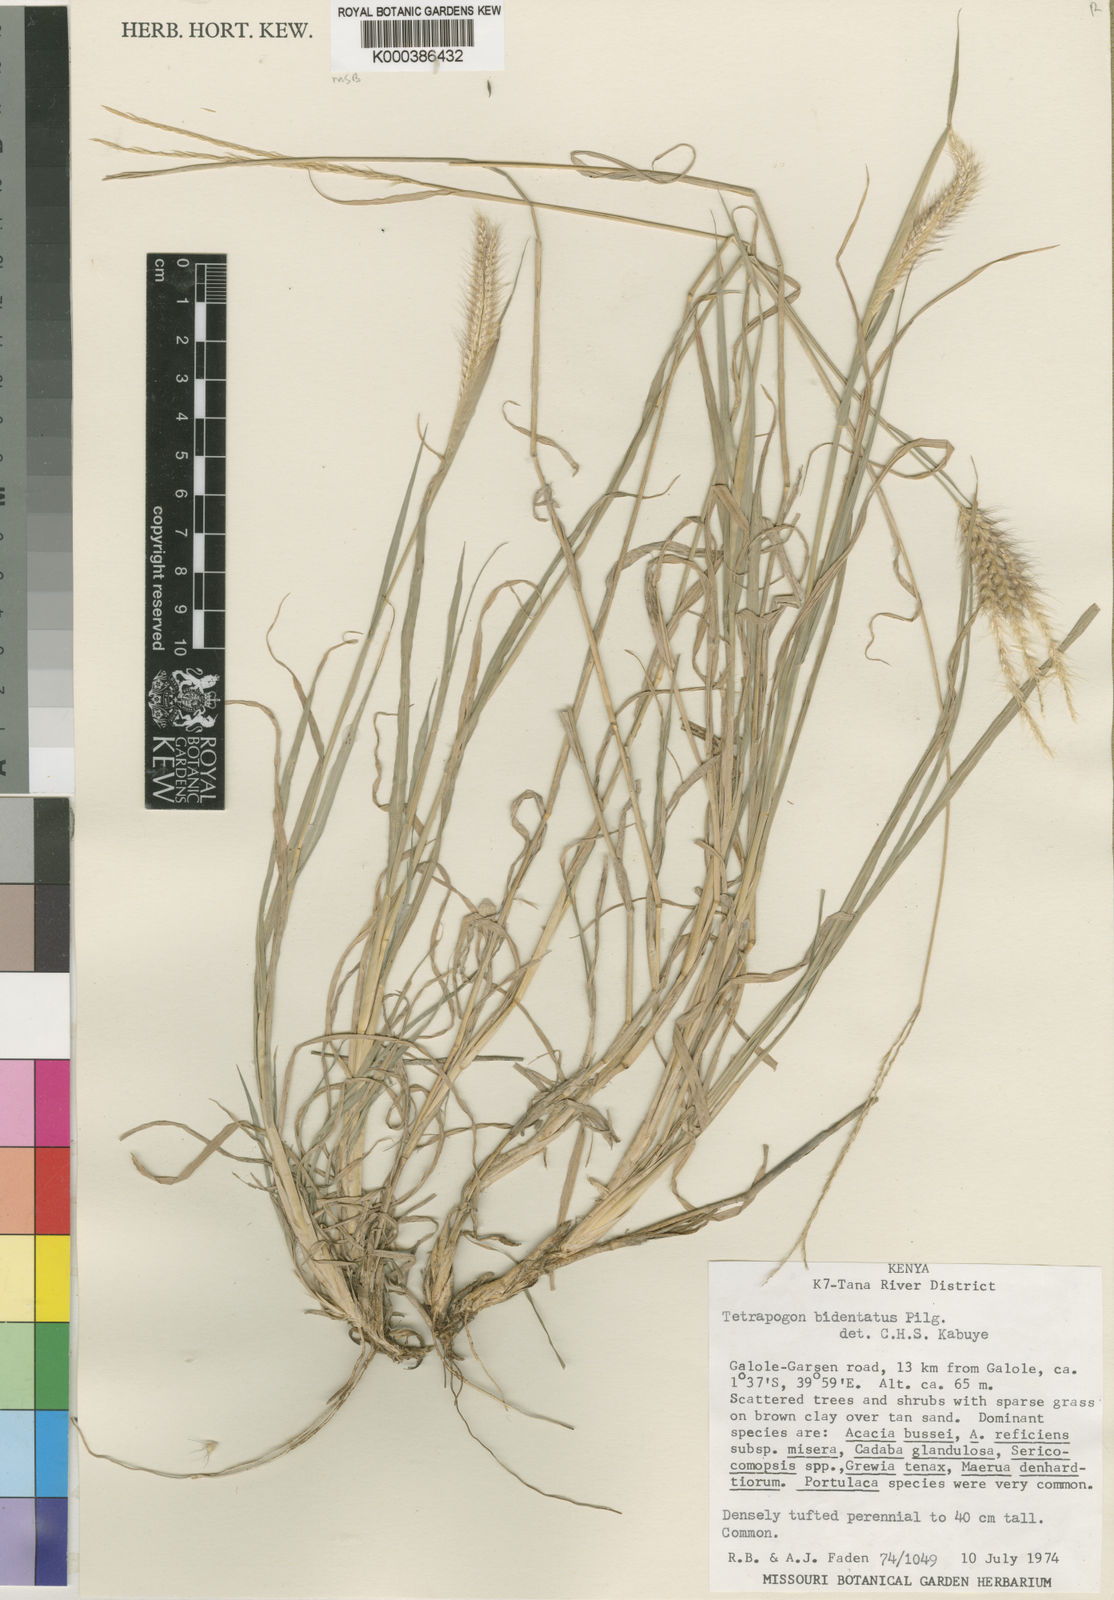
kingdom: Plantae
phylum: Tracheophyta
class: Liliopsida
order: Poales
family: Poaceae
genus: Tetrapogon
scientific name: Tetrapogon bidentatus
